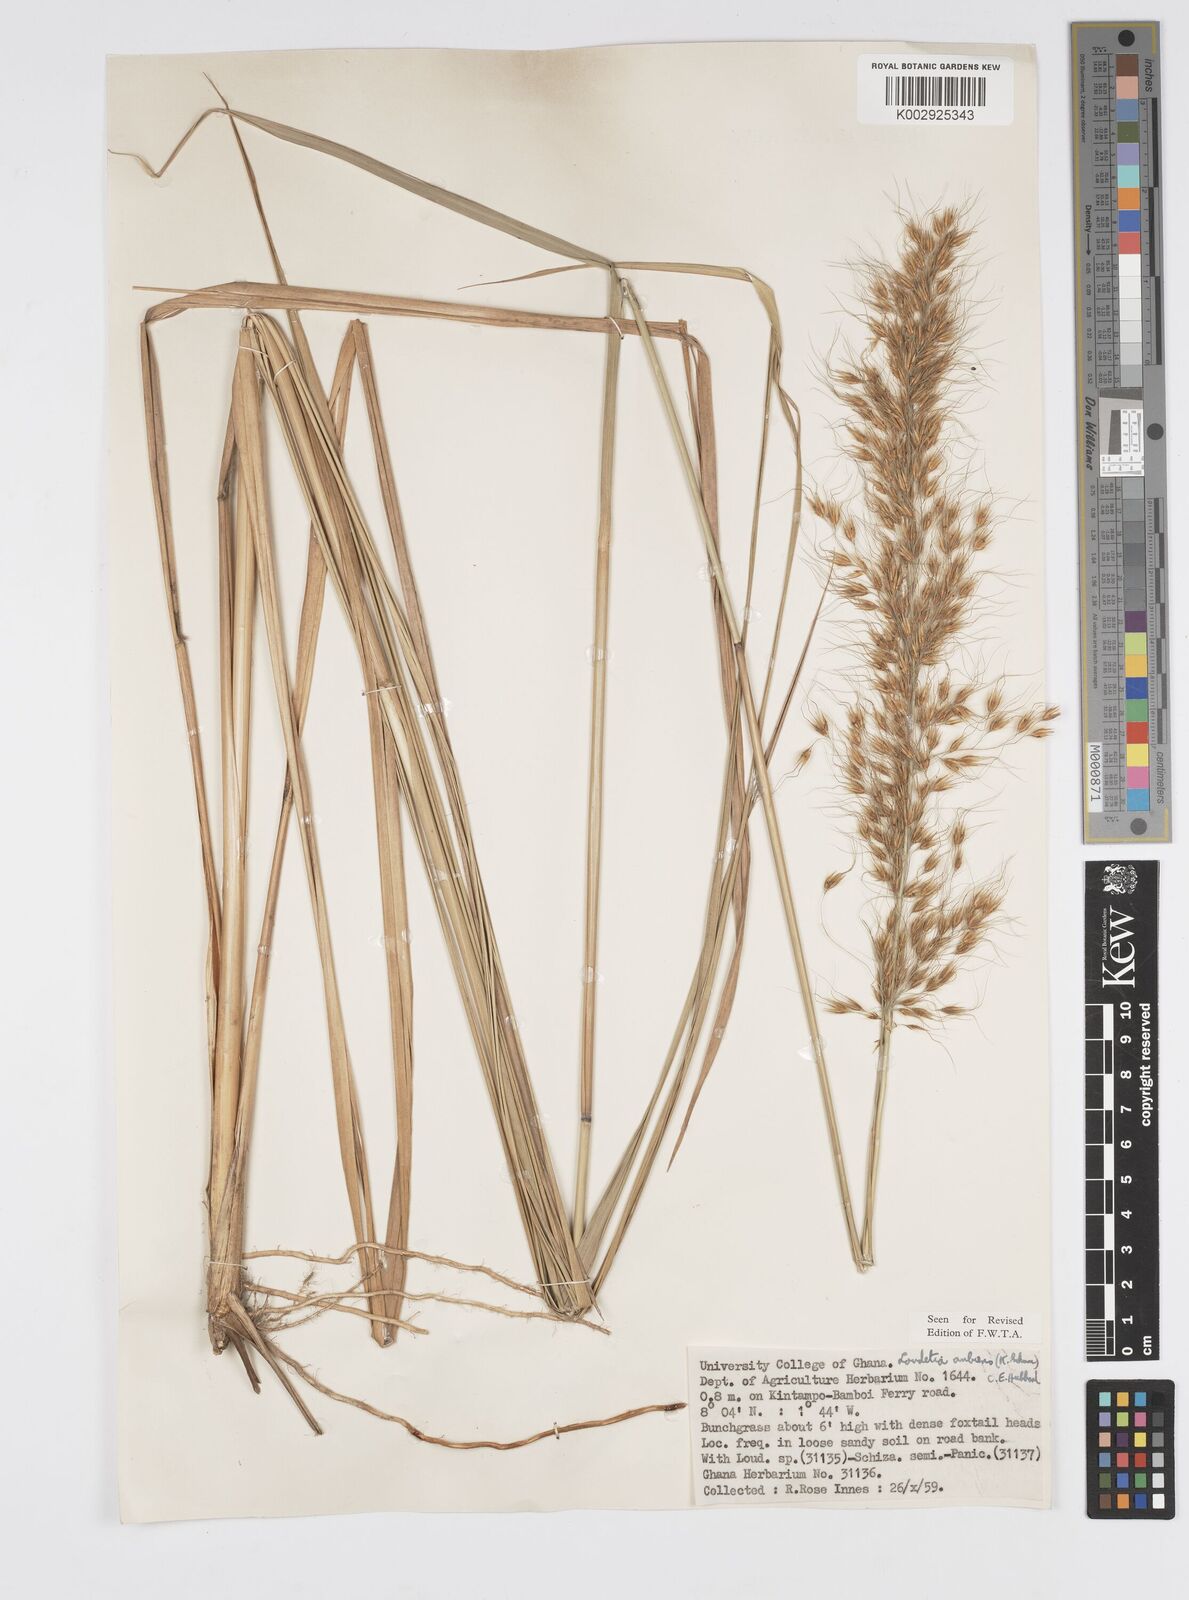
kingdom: Plantae
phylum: Tracheophyta
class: Liliopsida
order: Poales
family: Poaceae
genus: Loudetiopsis
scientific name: Loudetiopsis ambiens
